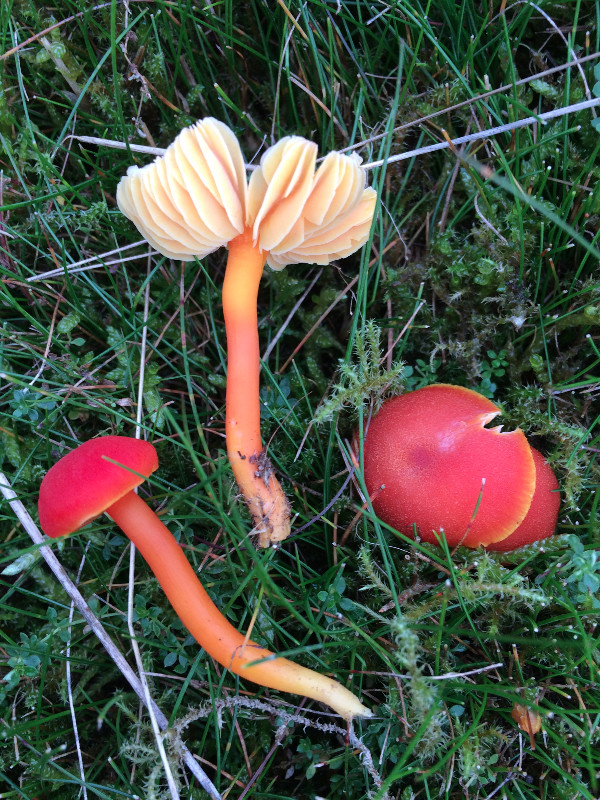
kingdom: Fungi
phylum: Basidiomycota
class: Agaricomycetes
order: Agaricales
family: Hygrophoraceae
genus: Hygrocybe
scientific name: Hygrocybe miniata
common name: mønje-vokshat
